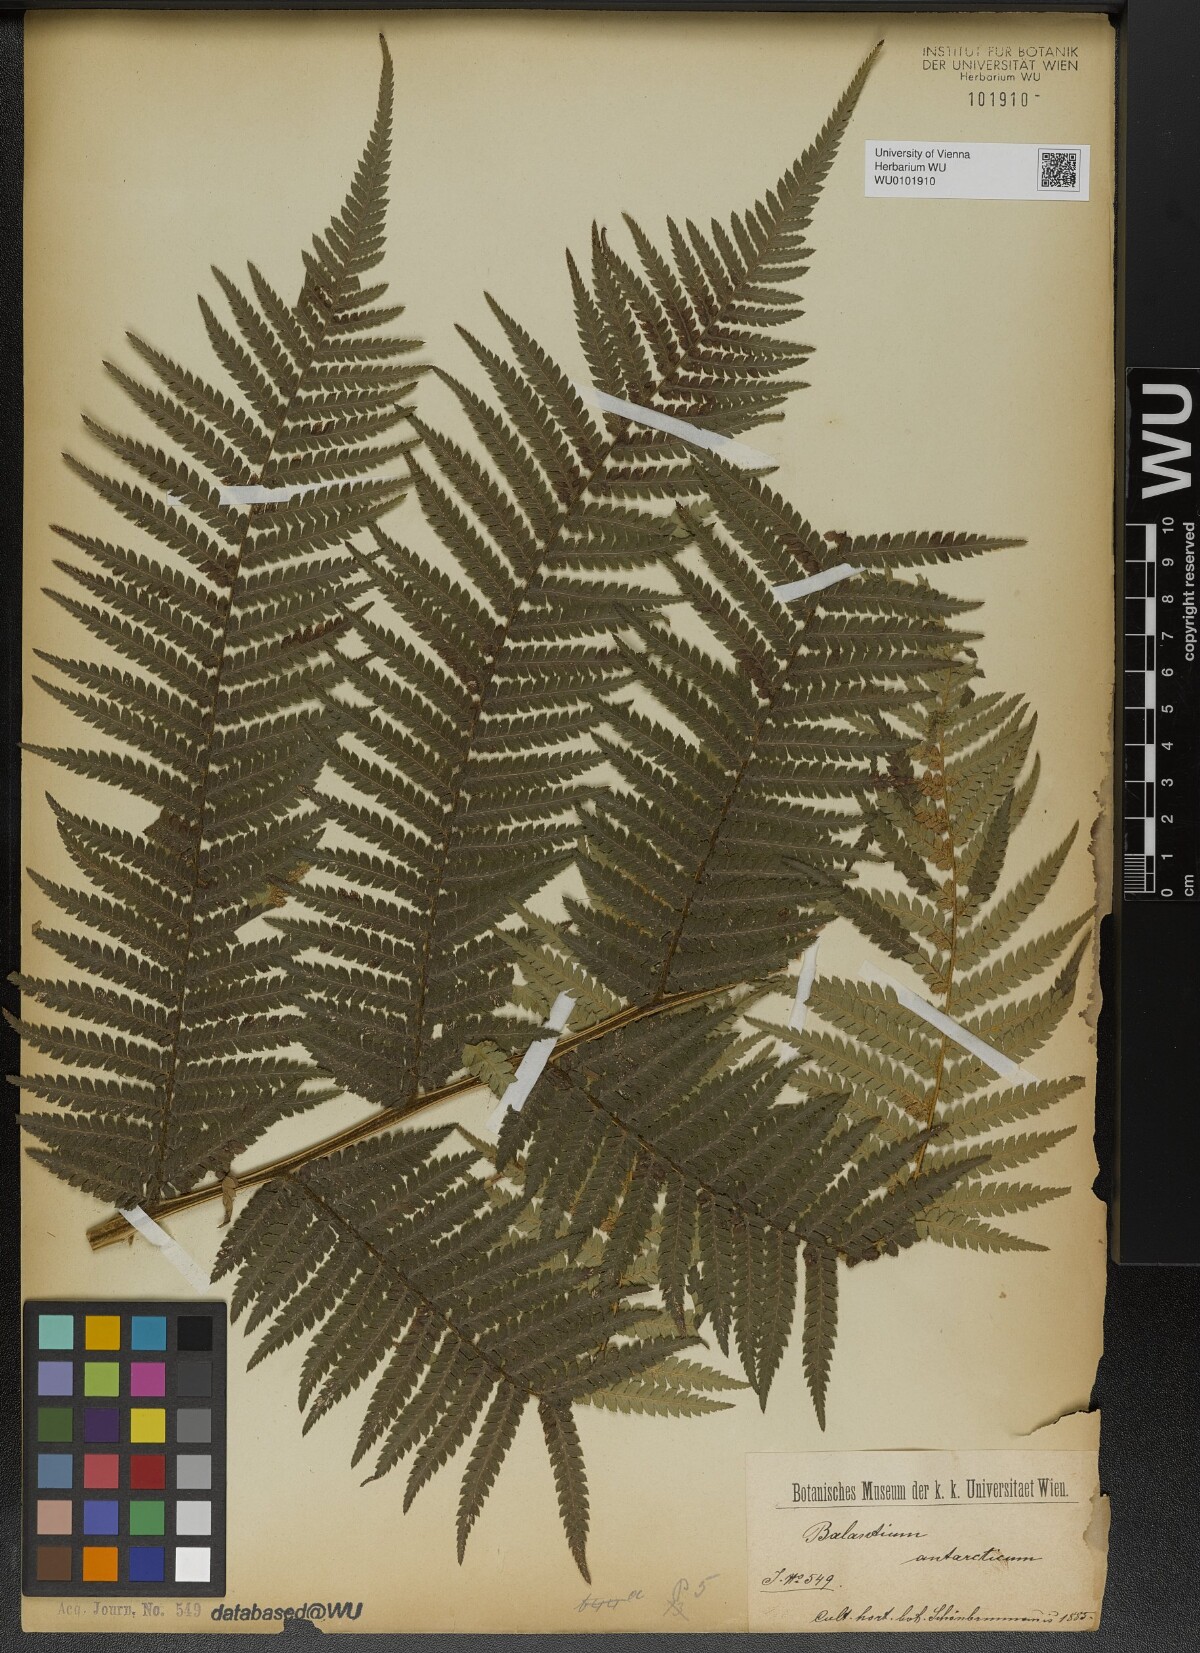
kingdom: Plantae
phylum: Tracheophyta
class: Polypodiopsida
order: Cyatheales
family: Dicksoniaceae
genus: Dicksonia
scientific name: Dicksonia antarctica
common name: Australian treefern
